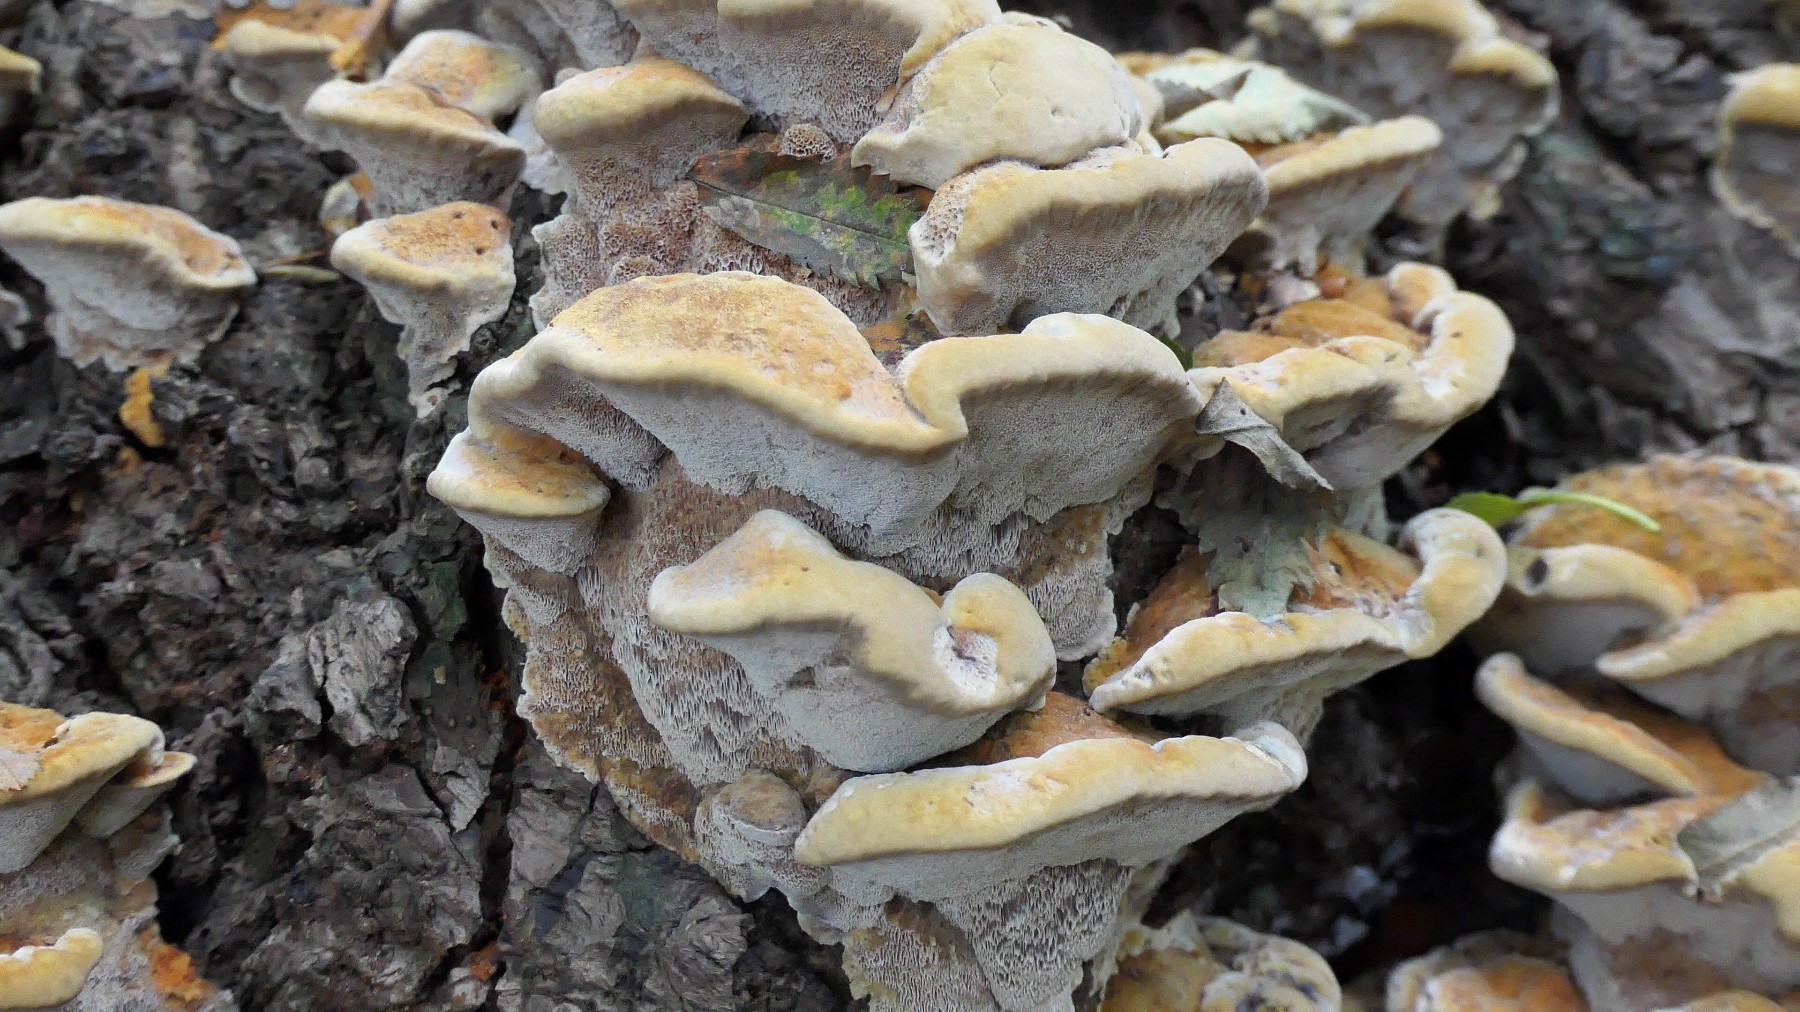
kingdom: Fungi
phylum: Basidiomycota
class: Agaricomycetes
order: Hymenochaetales
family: Hymenochaetaceae
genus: Xanthoporia
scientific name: Xanthoporia radiata
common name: elle-spejlporesvamp
